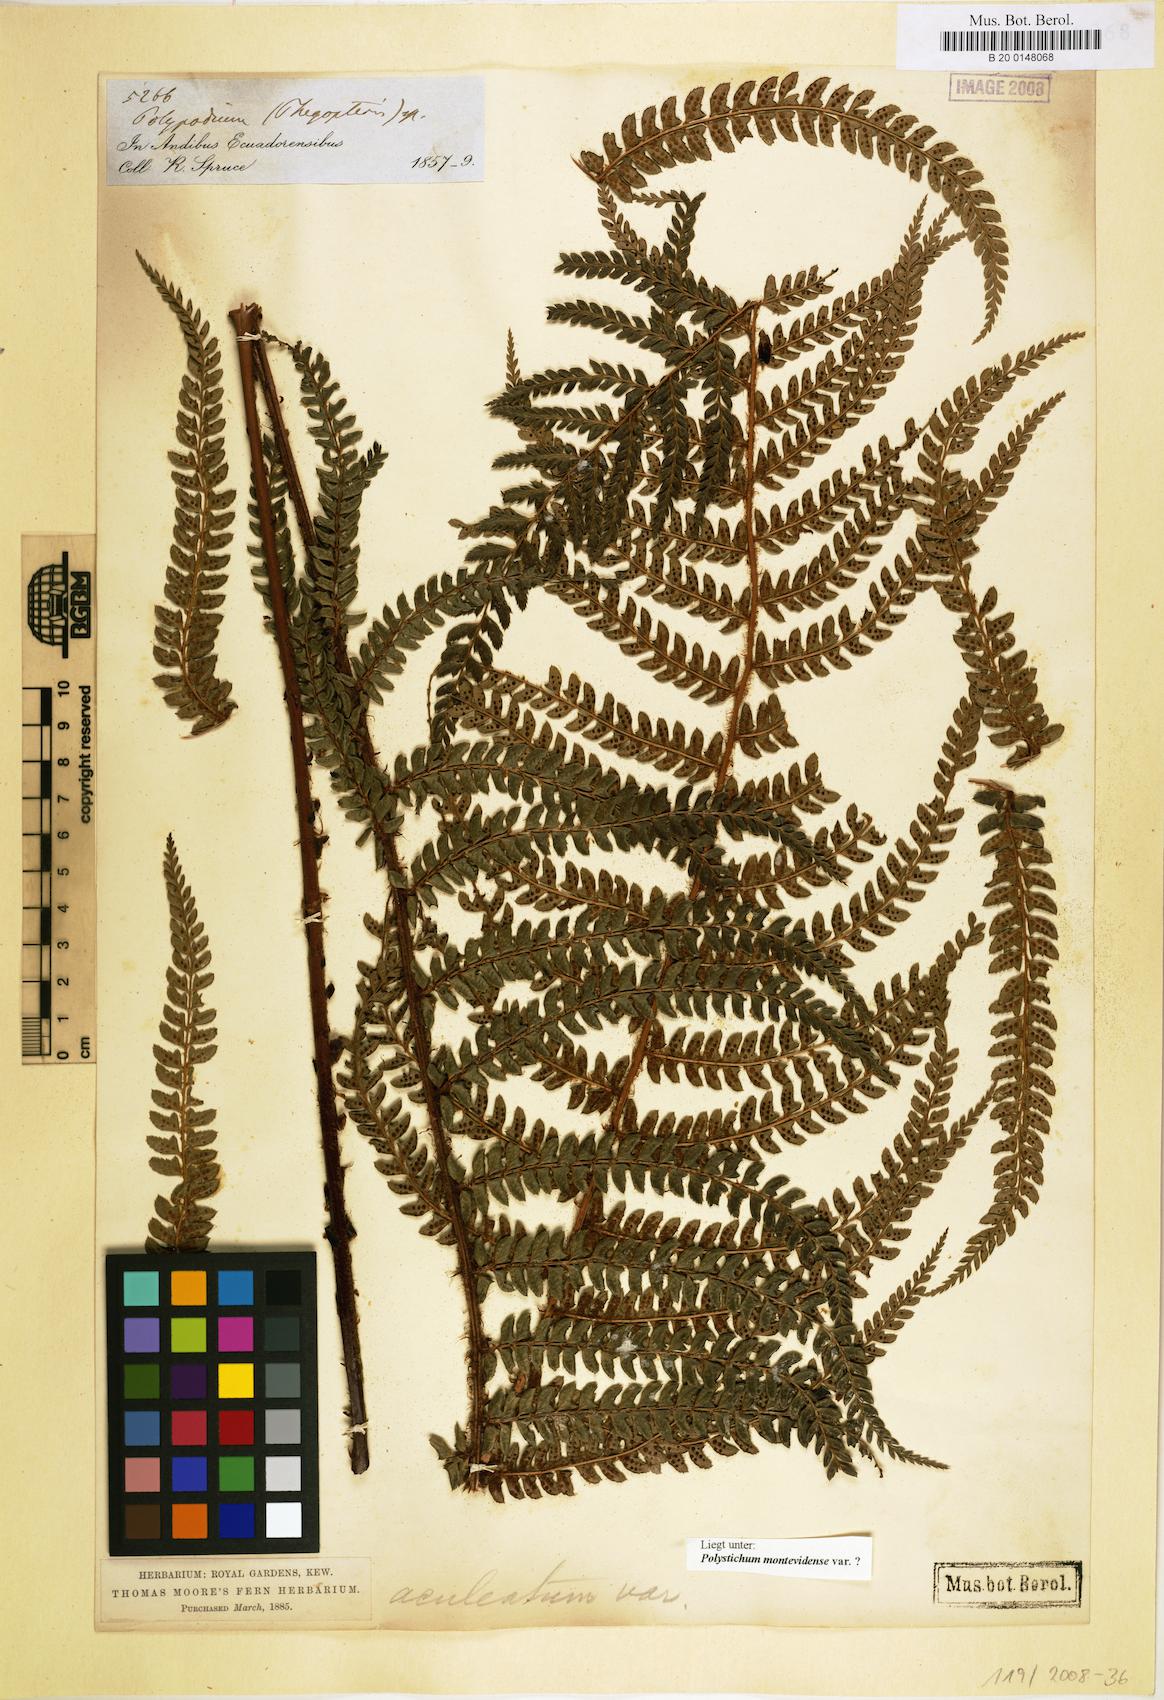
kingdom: Plantae
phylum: Tracheophyta
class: Polypodiopsida
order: Polypodiales
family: Dryopteridaceae
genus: Polystichum
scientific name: Polystichum montevidense
